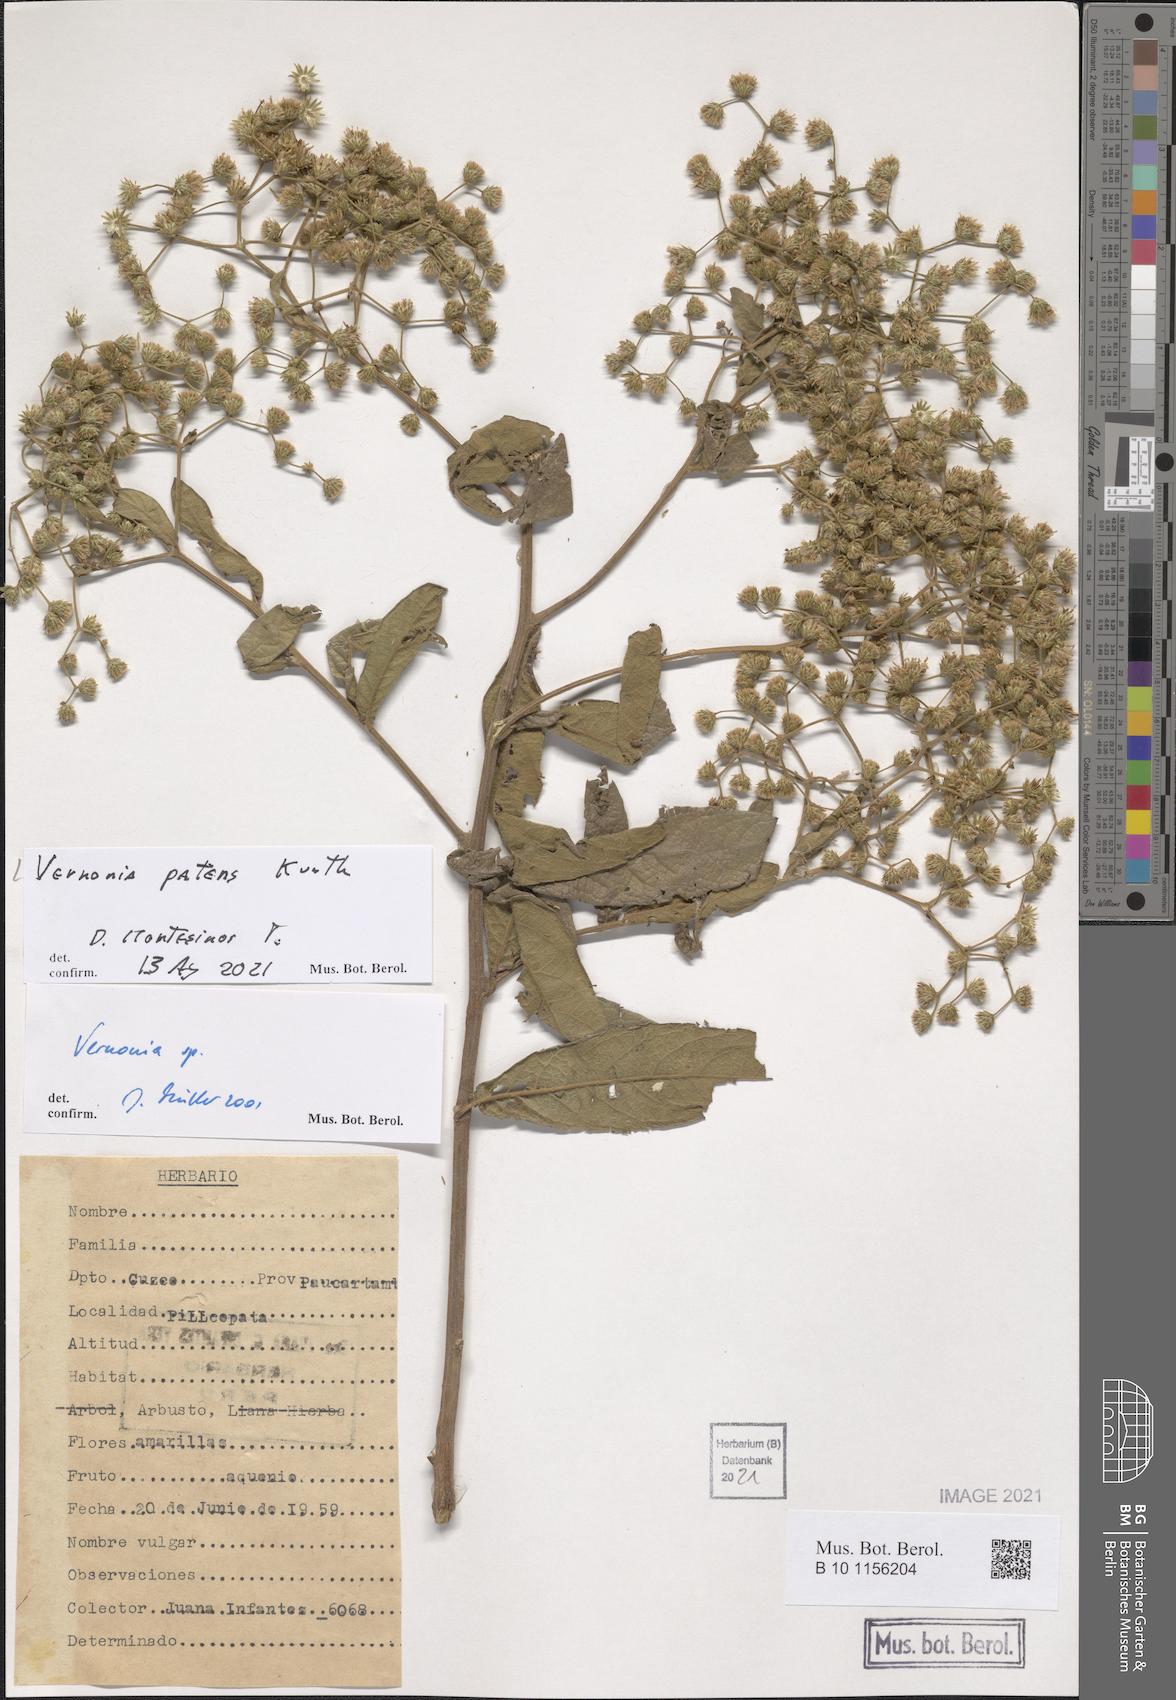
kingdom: Plantae
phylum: Tracheophyta
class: Magnoliopsida
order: Asterales
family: Asteraceae
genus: Vernonanthura
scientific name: Vernonanthura patens
